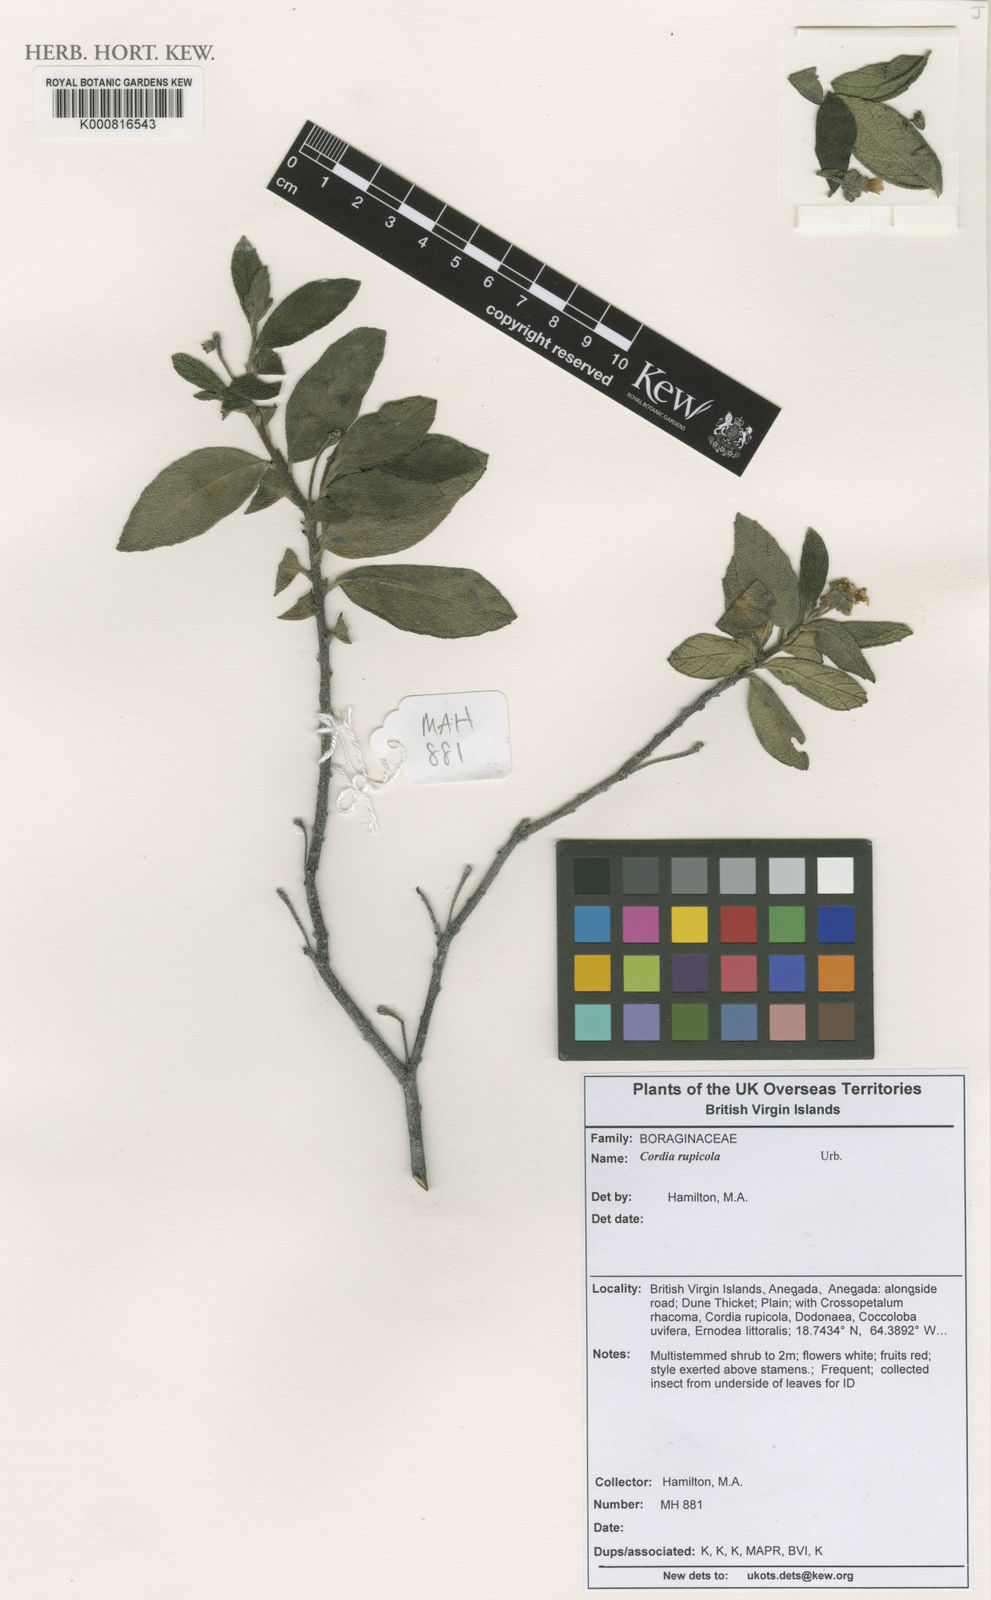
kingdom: Plantae
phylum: Tracheophyta
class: Magnoliopsida
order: Boraginales
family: Cordiaceae
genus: Varronia
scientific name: Varronia rupicola
